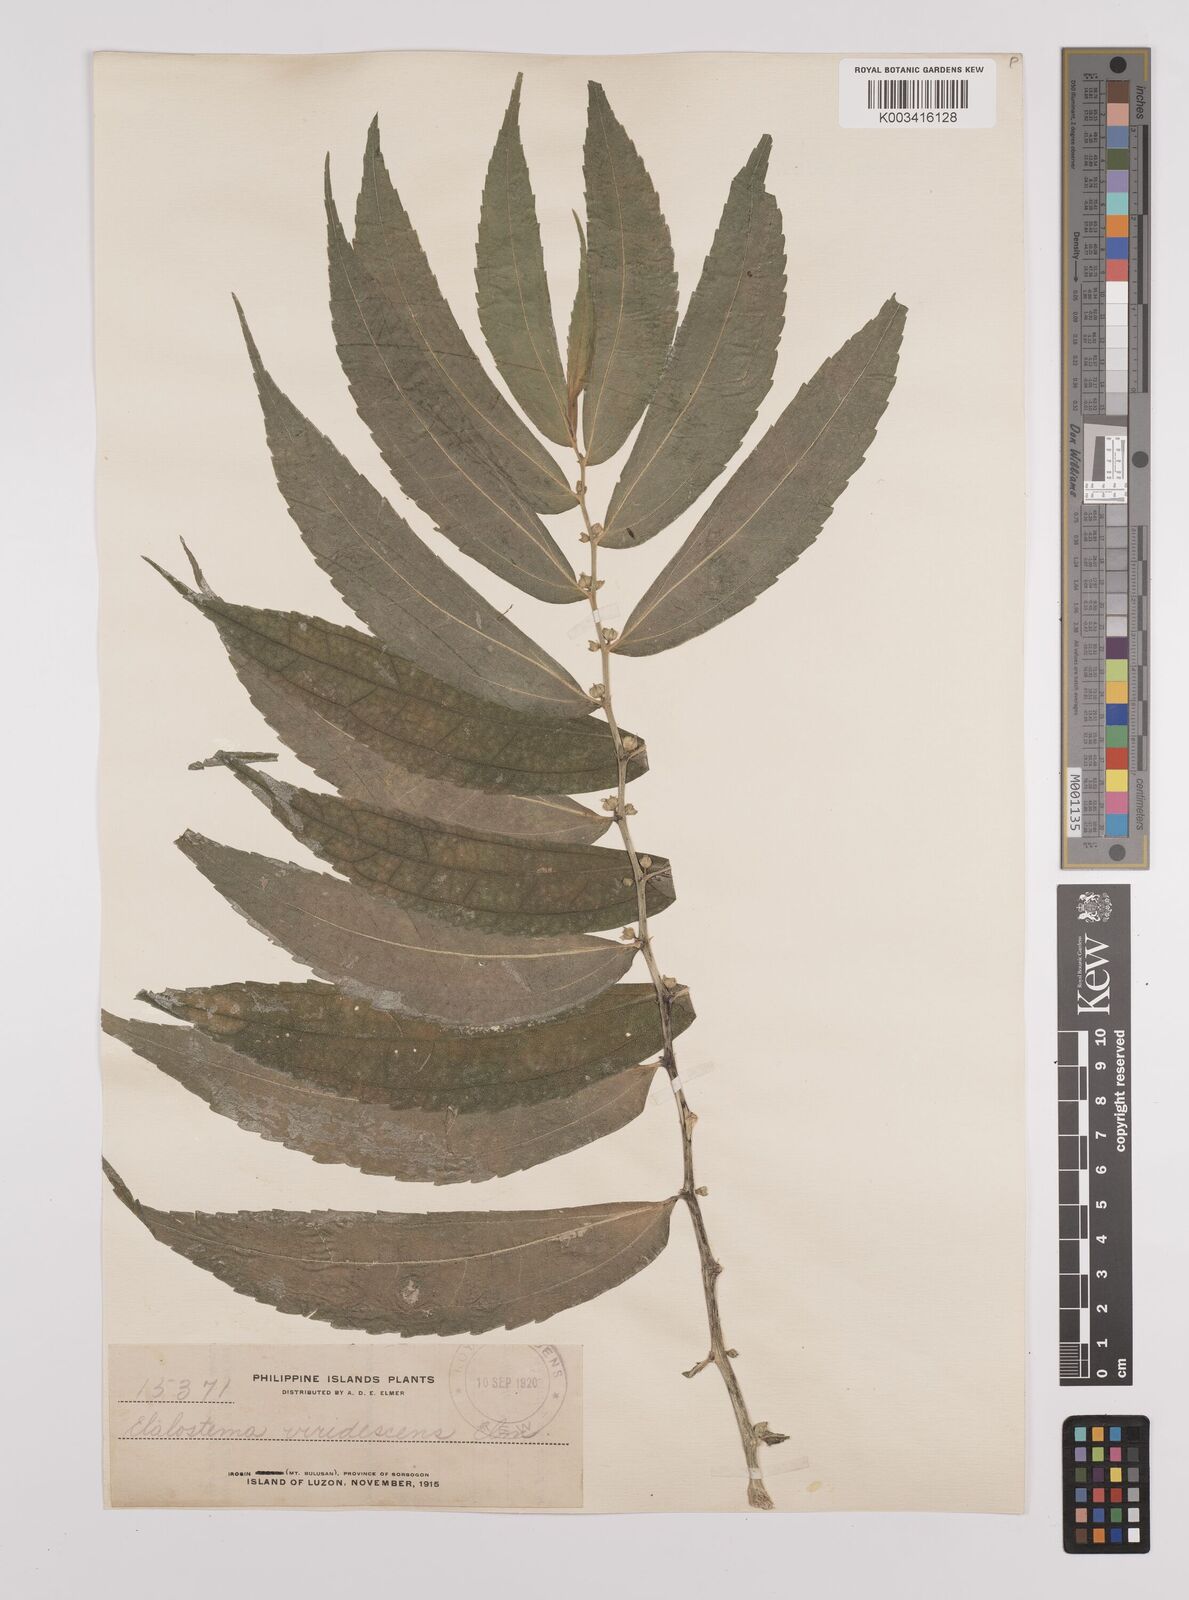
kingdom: Plantae
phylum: Tracheophyta
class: Magnoliopsida
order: Rosales
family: Urticaceae
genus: Elatostema
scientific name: Elatostema viridescens
